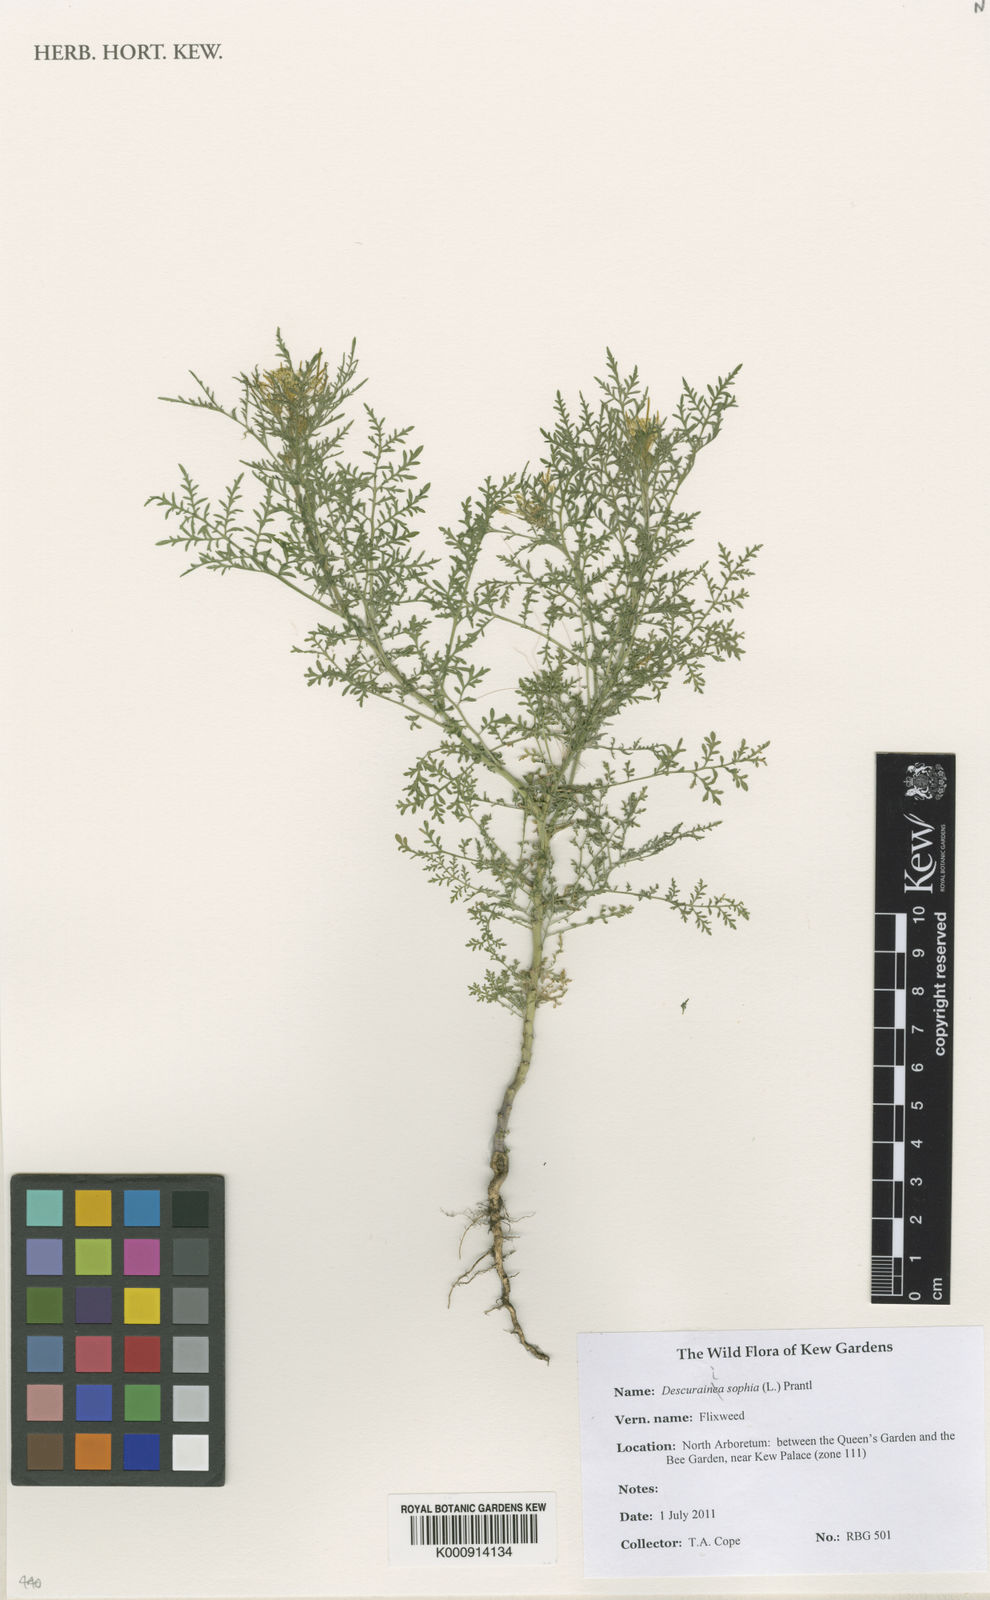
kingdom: Plantae
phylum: Tracheophyta
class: Magnoliopsida
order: Brassicales
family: Brassicaceae
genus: Descurainia
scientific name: Descurainia sophia
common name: Flixweed
